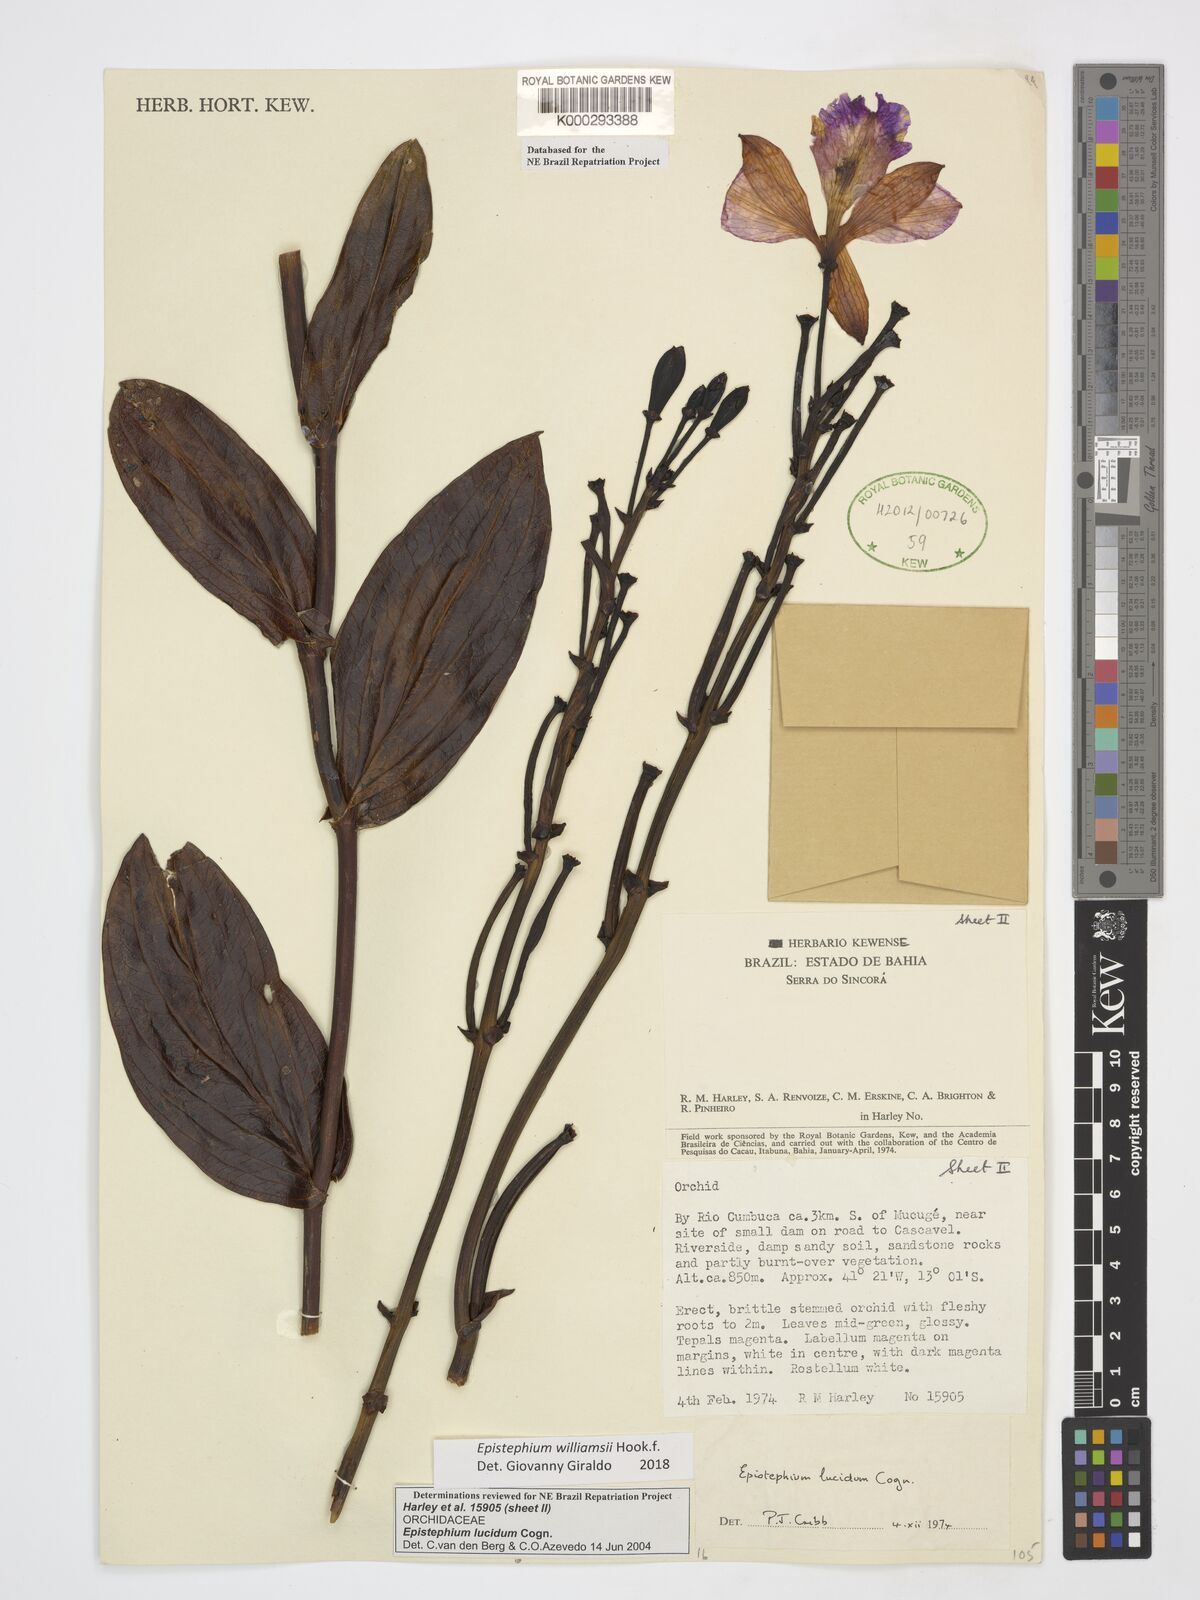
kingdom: Plantae
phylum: Tracheophyta
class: Liliopsida
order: Asparagales
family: Orchidaceae
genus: Epistephium
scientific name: Epistephium williamsii
